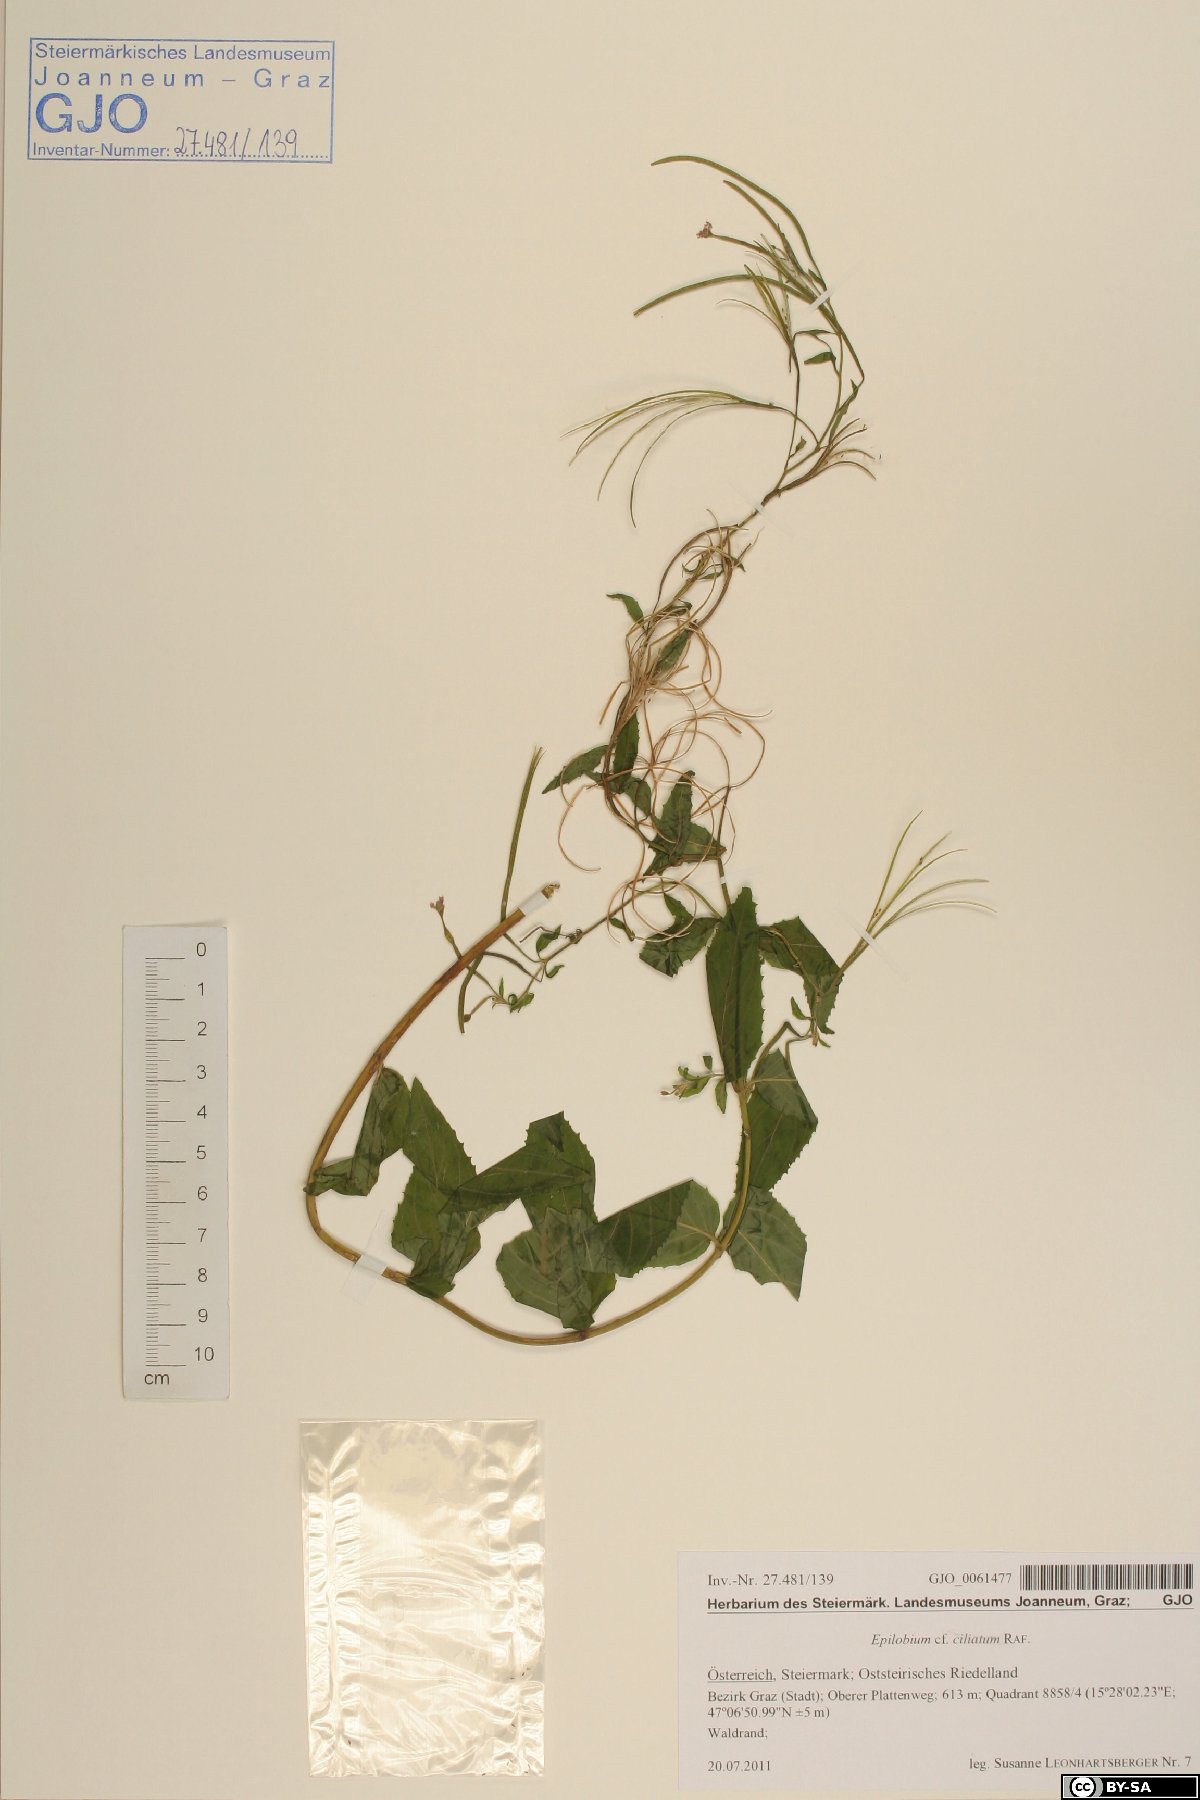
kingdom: Plantae
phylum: Tracheophyta
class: Magnoliopsida
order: Myrtales
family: Onagraceae
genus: Epilobium
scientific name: Epilobium ciliatum
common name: American willowherb
